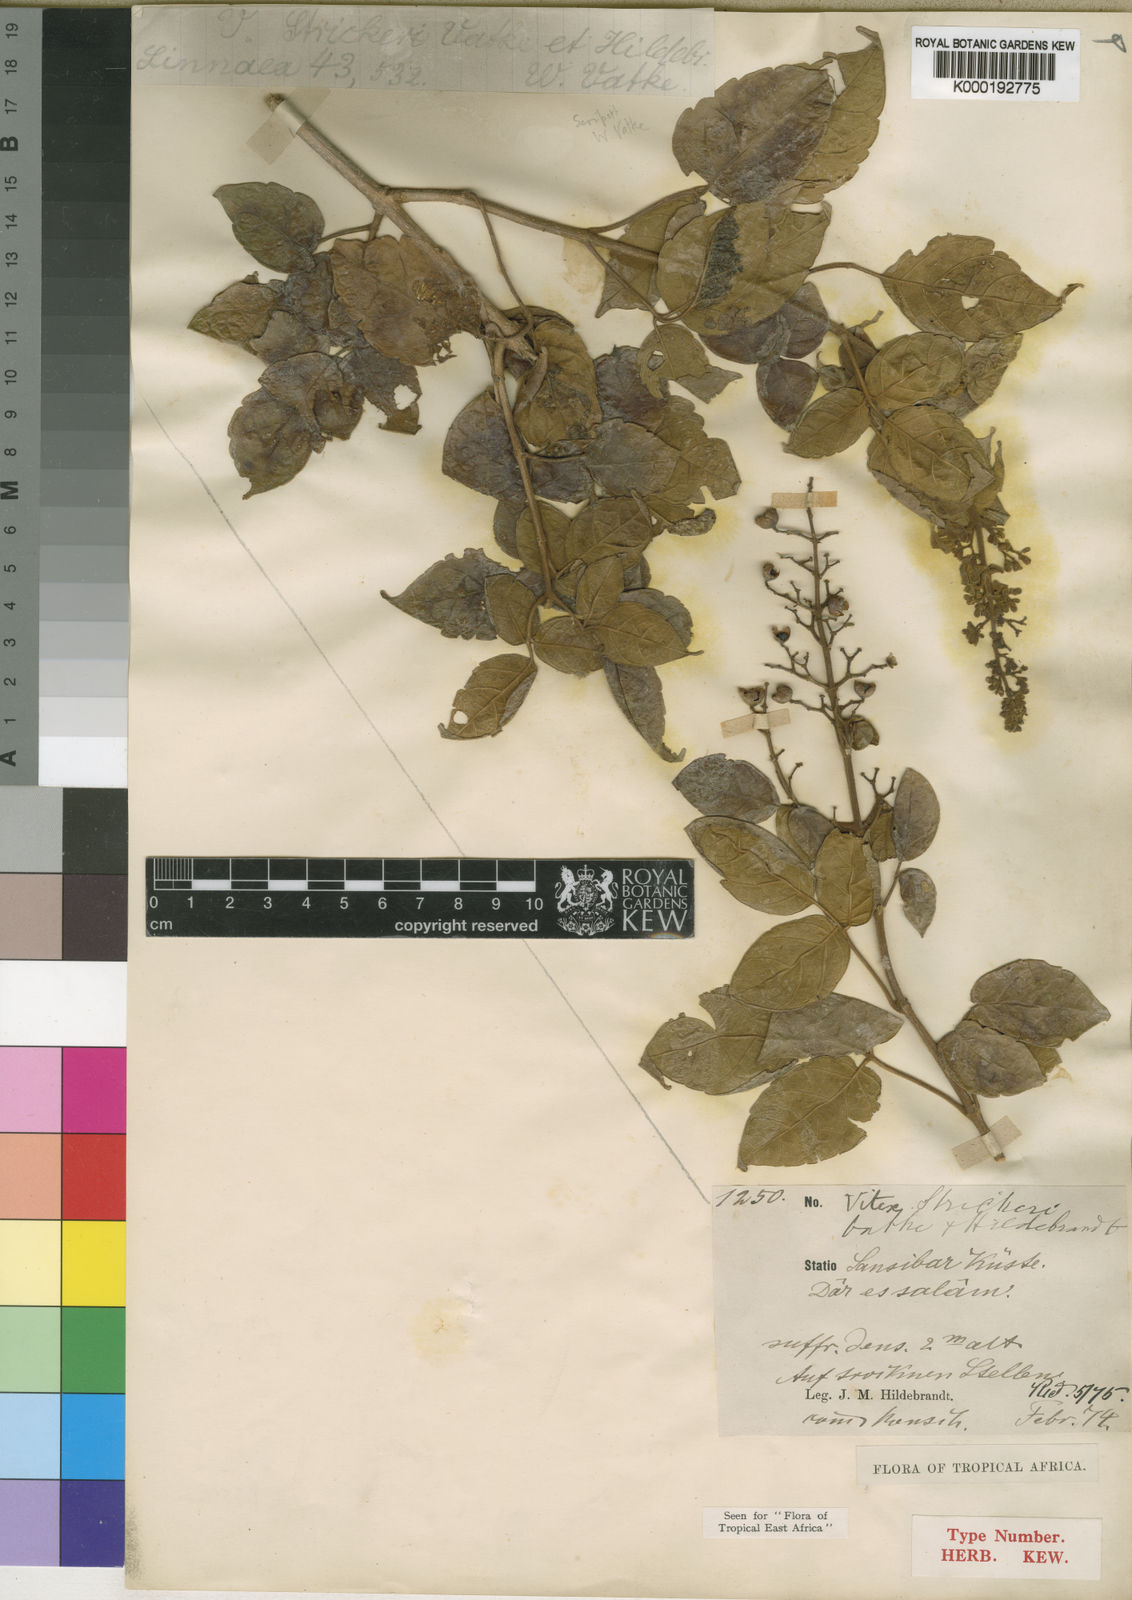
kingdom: Plantae
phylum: Tracheophyta
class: Magnoliopsida
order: Lamiales
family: Lamiaceae
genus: Vitex
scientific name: Vitex strickeri
